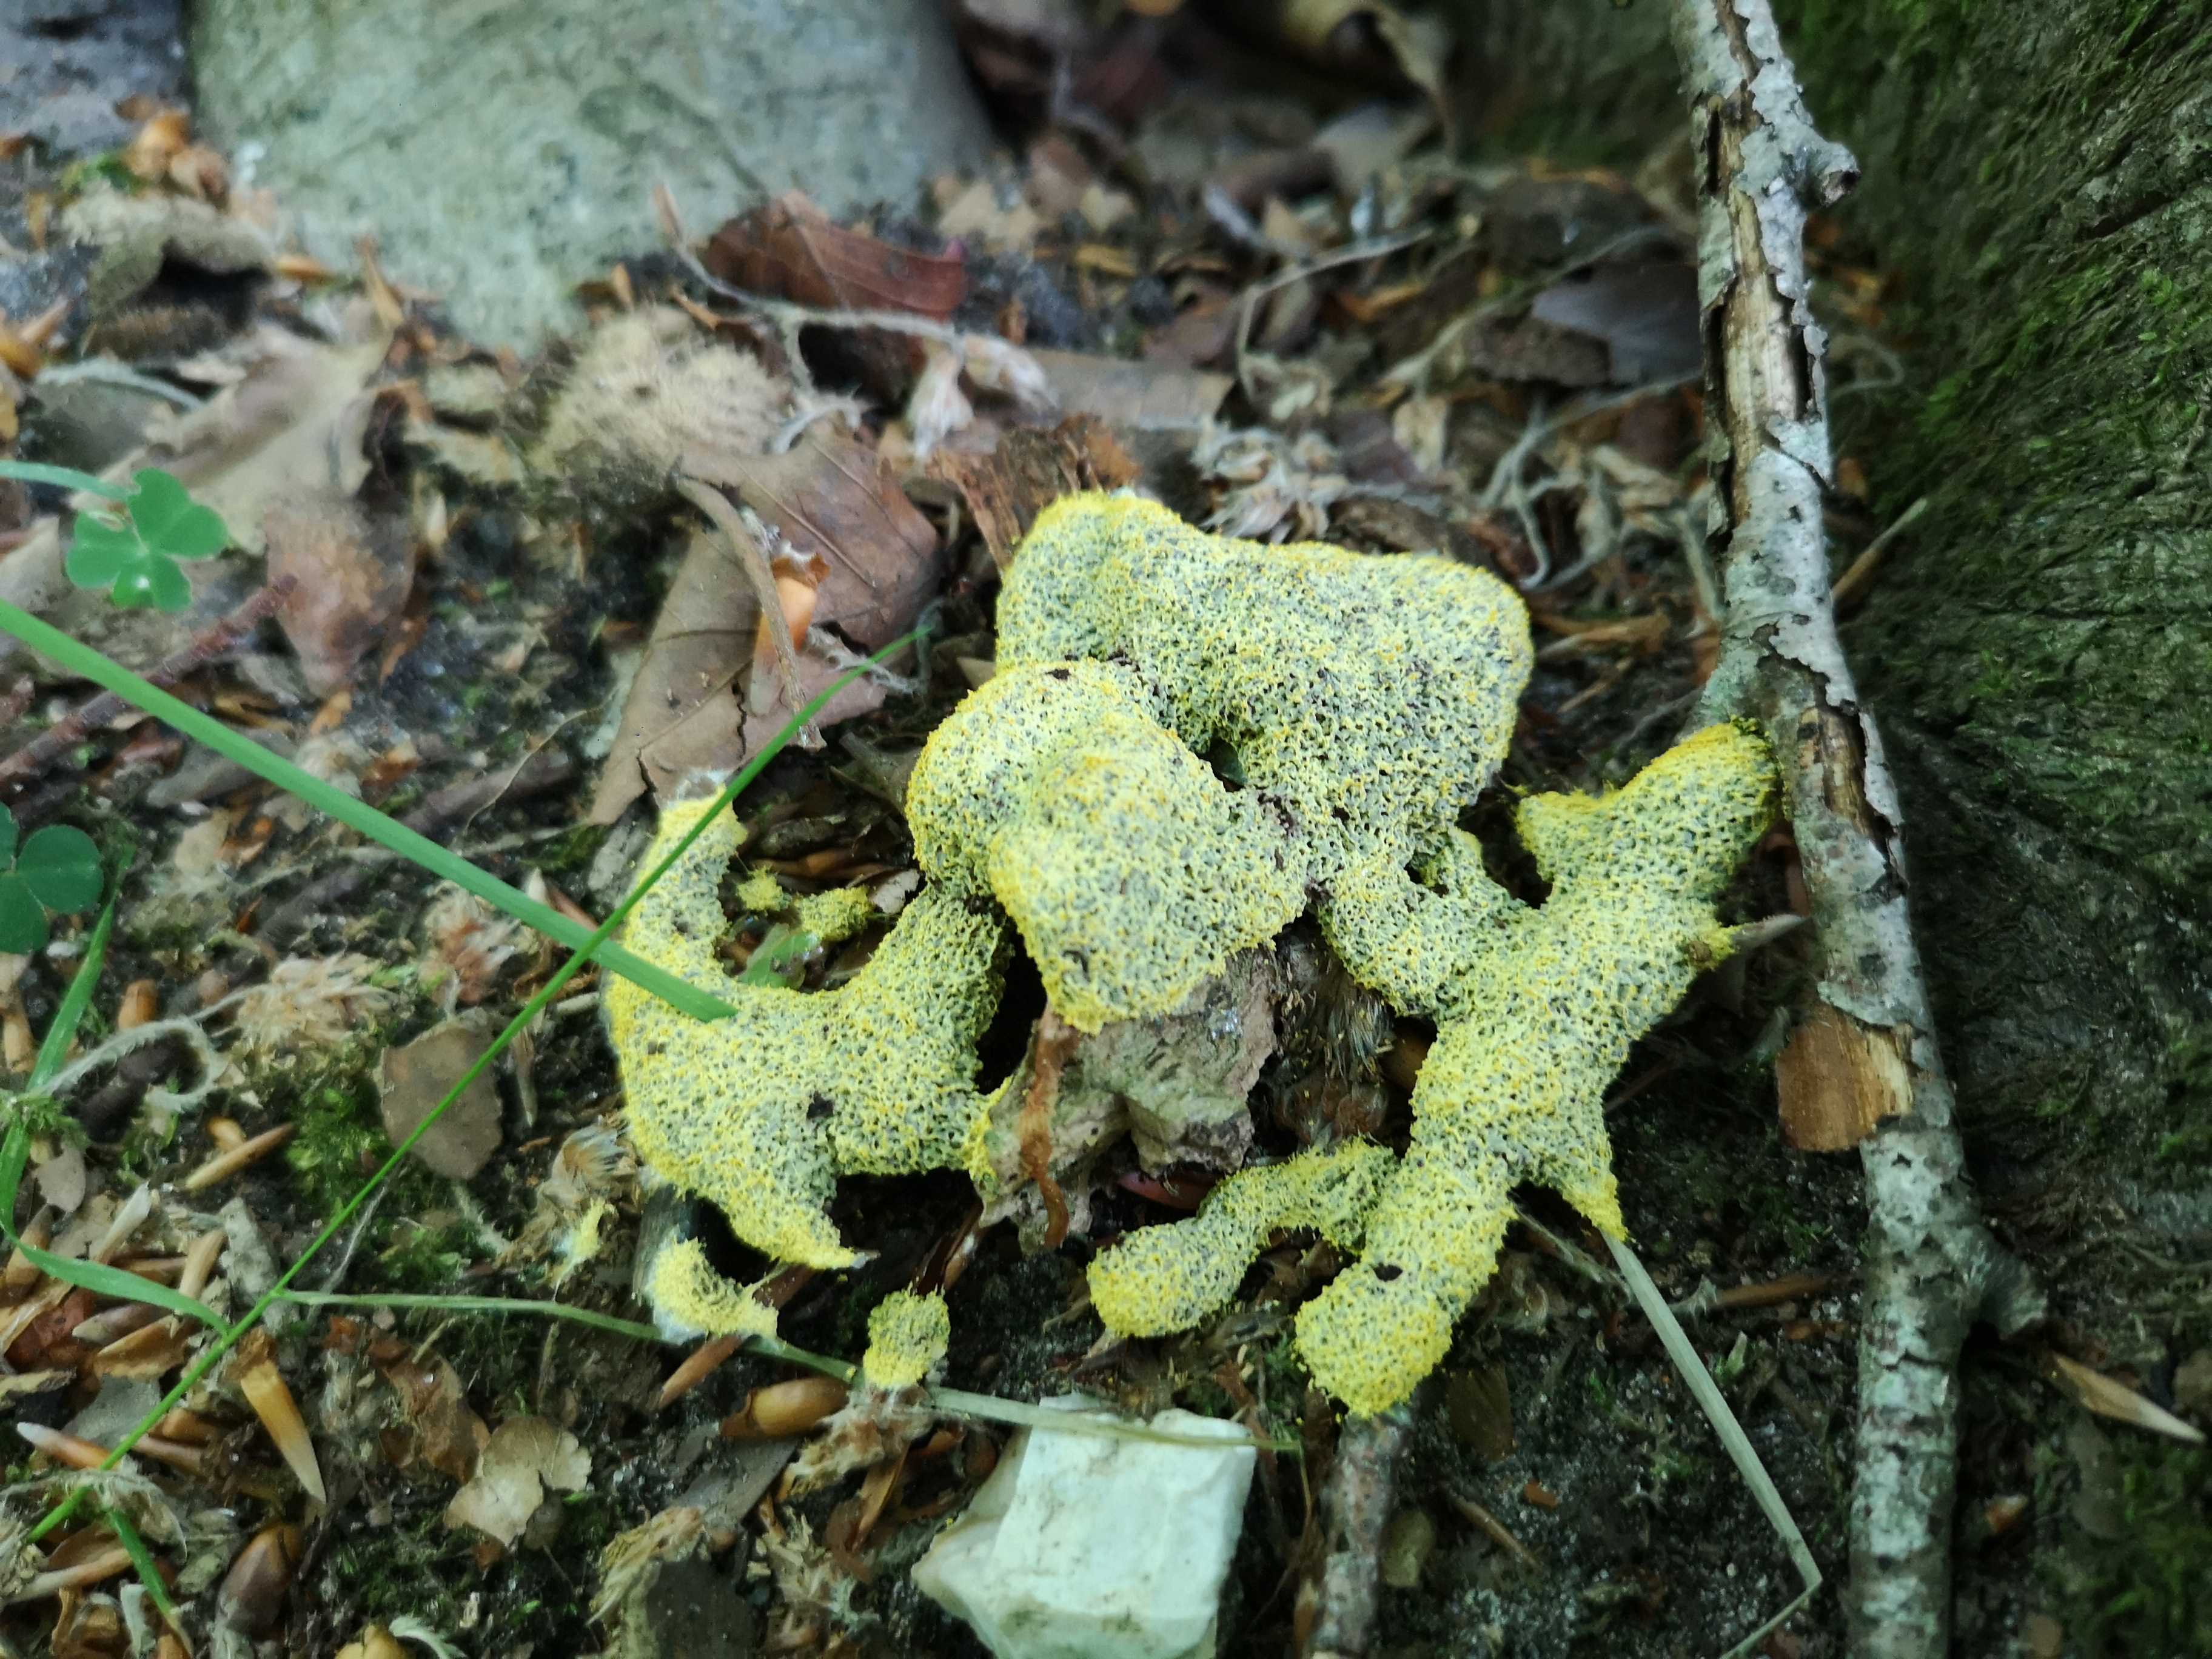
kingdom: Protozoa
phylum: Mycetozoa
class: Myxomycetes
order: Physarales
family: Physaraceae
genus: Fuligo
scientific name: Fuligo septica
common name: gul troldsmør
